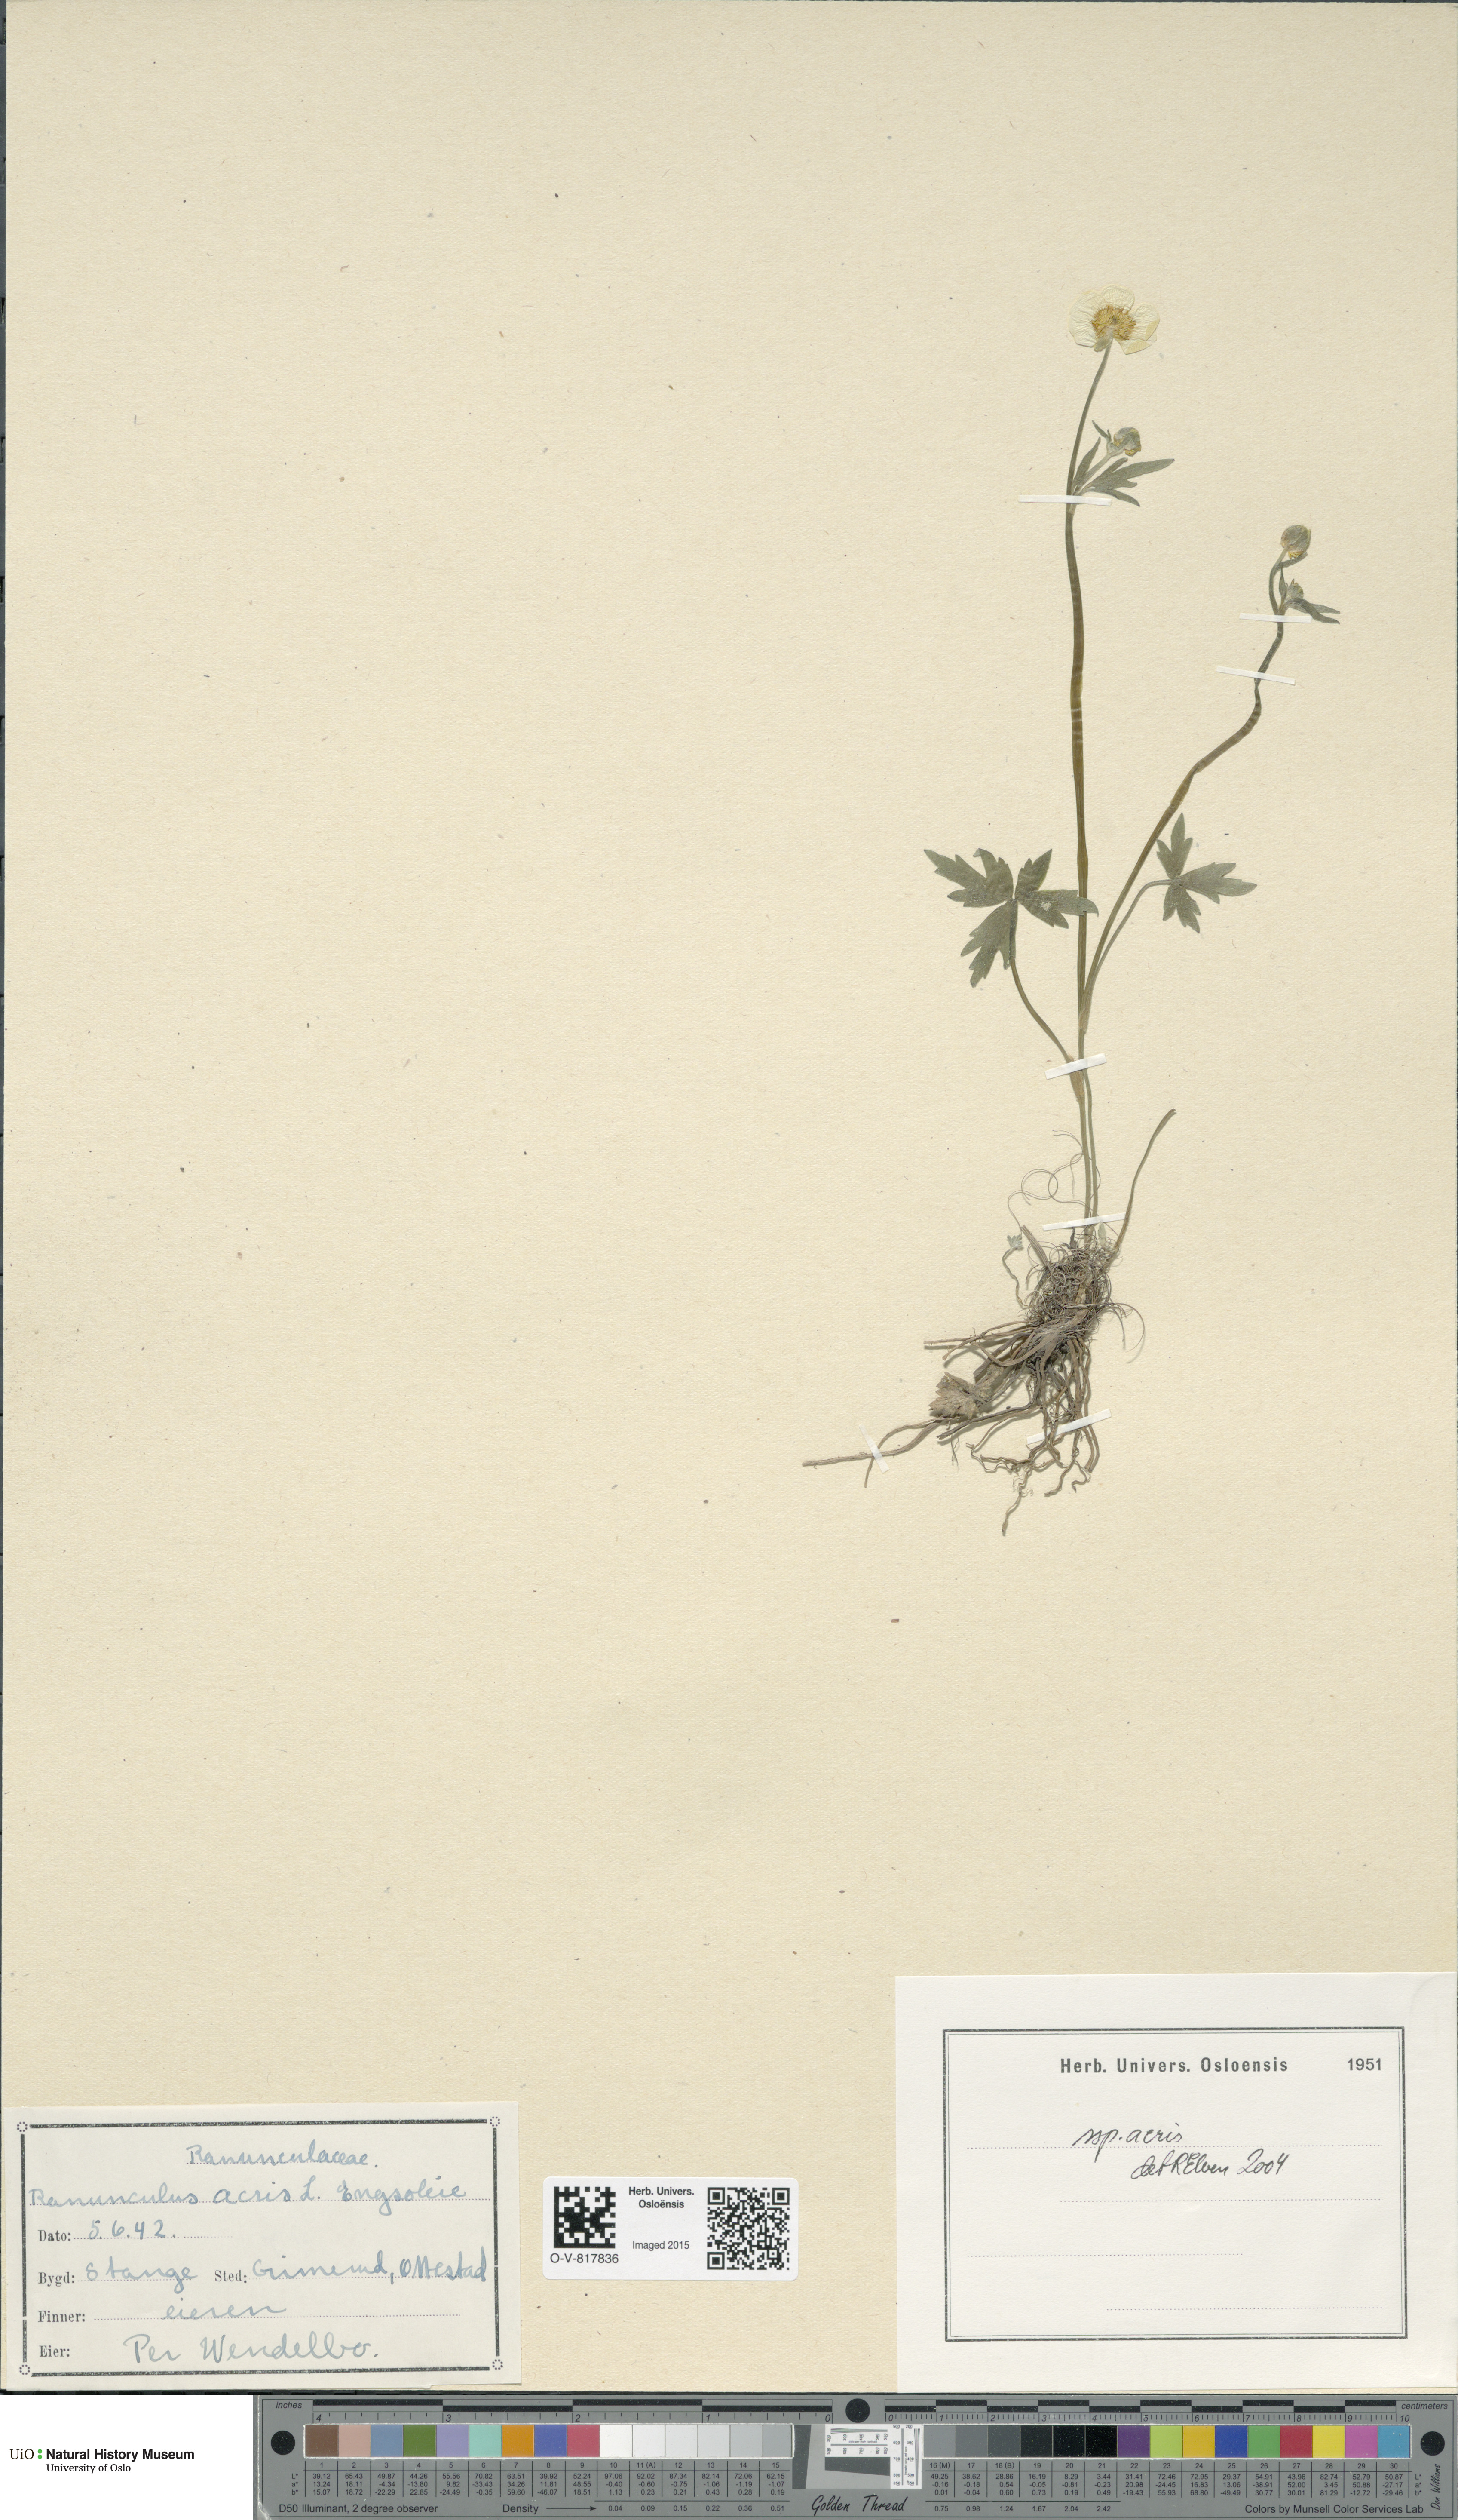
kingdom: Plantae
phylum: Tracheophyta
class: Magnoliopsida
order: Ranunculales
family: Ranunculaceae
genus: Ranunculus
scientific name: Ranunculus acris
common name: Meadow buttercup
